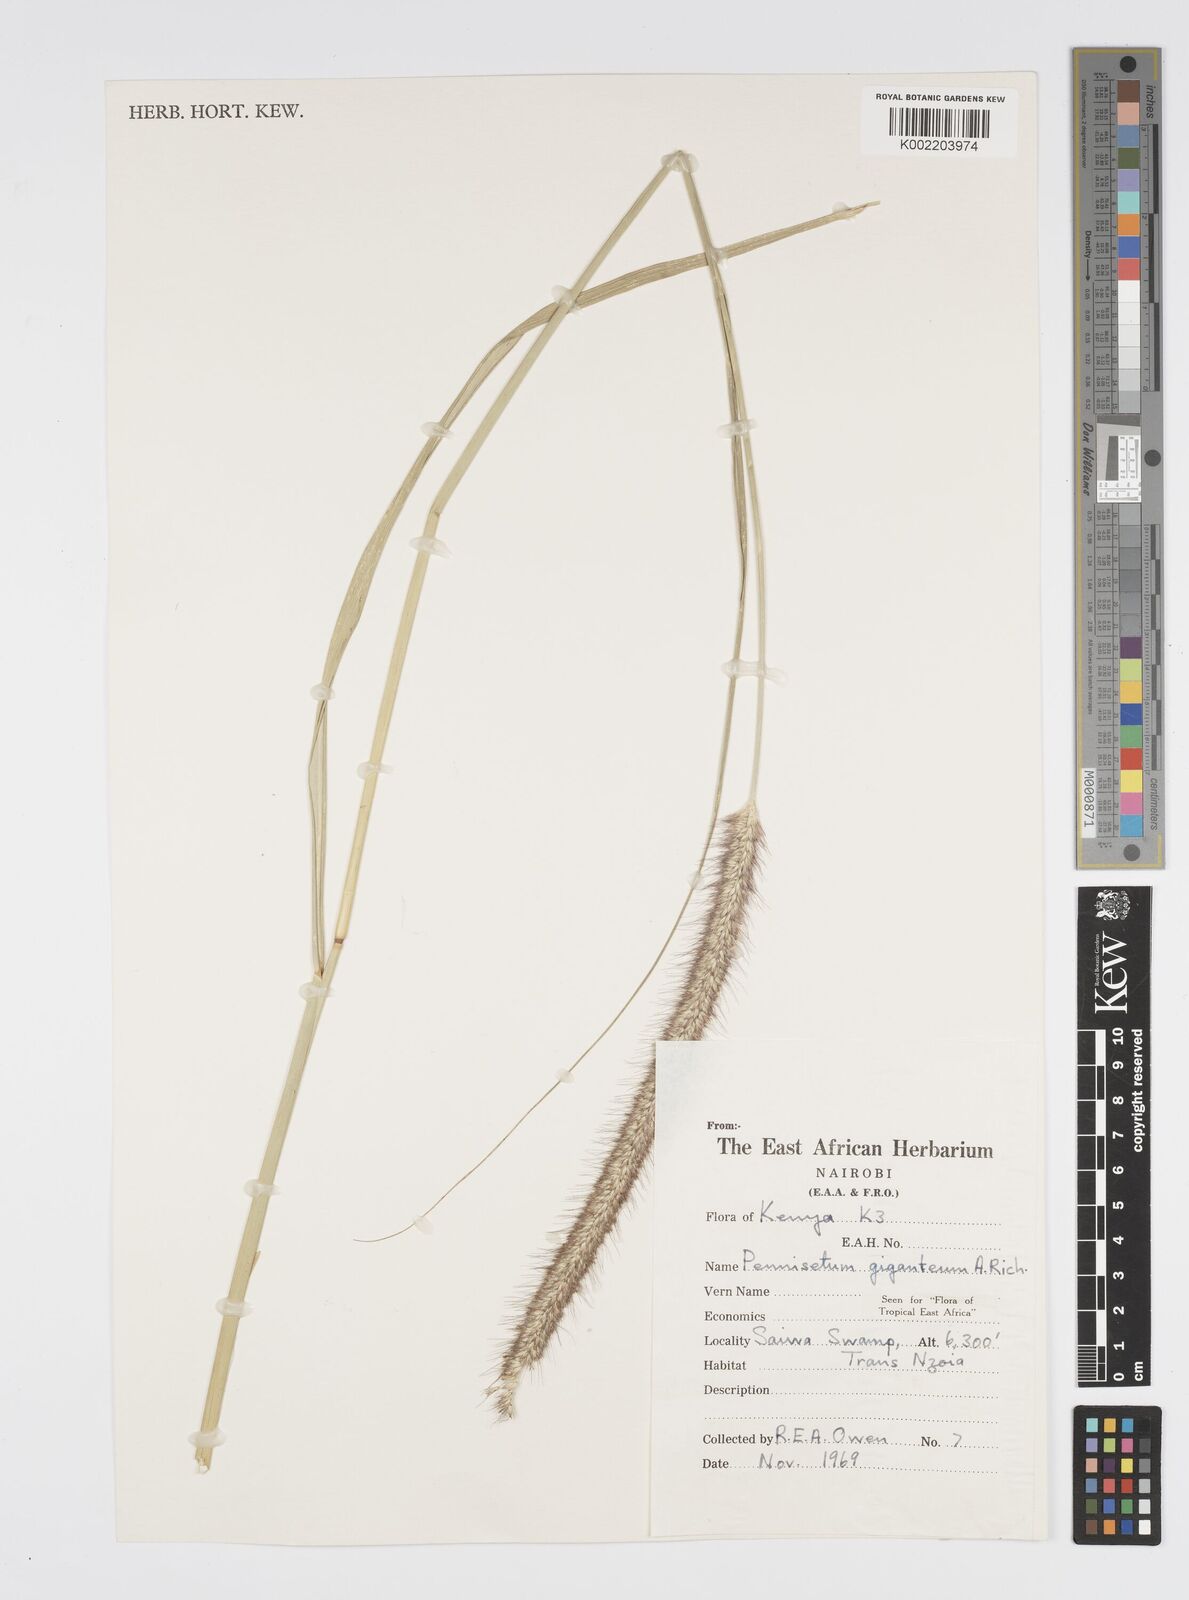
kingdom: Plantae
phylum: Tracheophyta
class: Liliopsida
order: Poales
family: Poaceae
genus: Cenchrus
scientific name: Cenchrus caudatus
